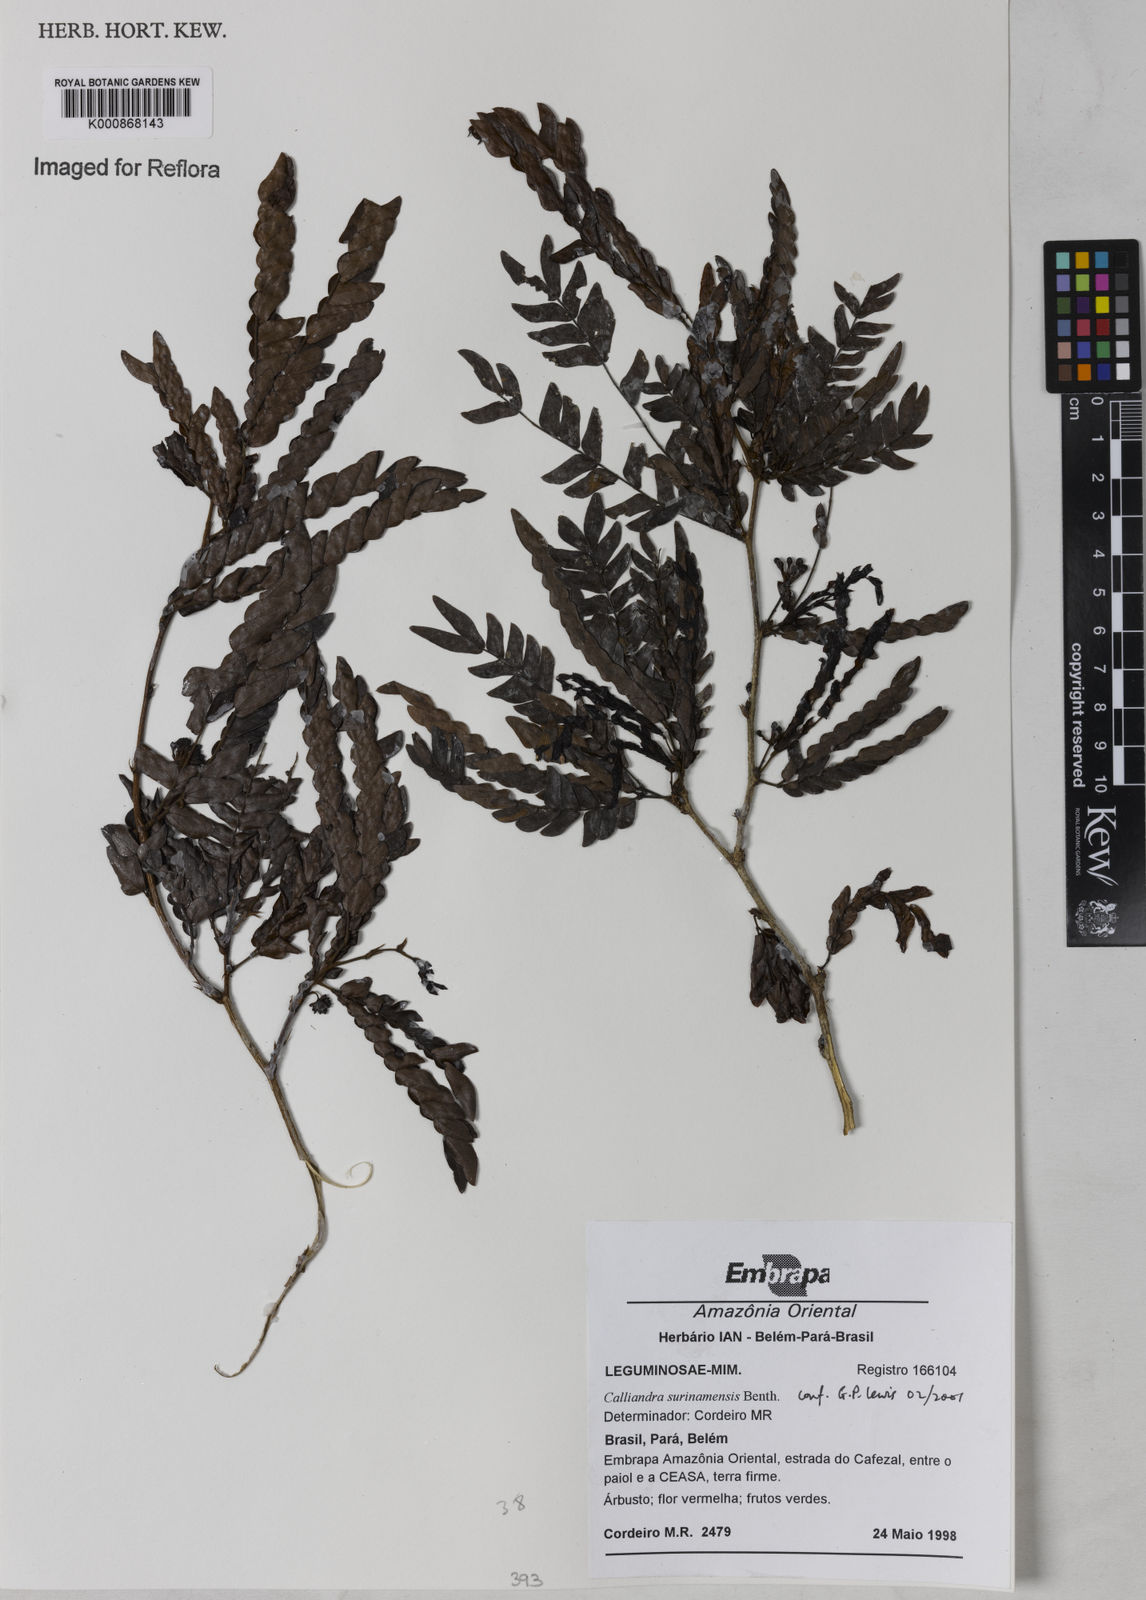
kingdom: Plantae
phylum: Tracheophyta
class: Magnoliopsida
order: Fabales
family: Fabaceae
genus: Calliandra
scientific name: Calliandra surinamensis
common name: Pink powder puff
